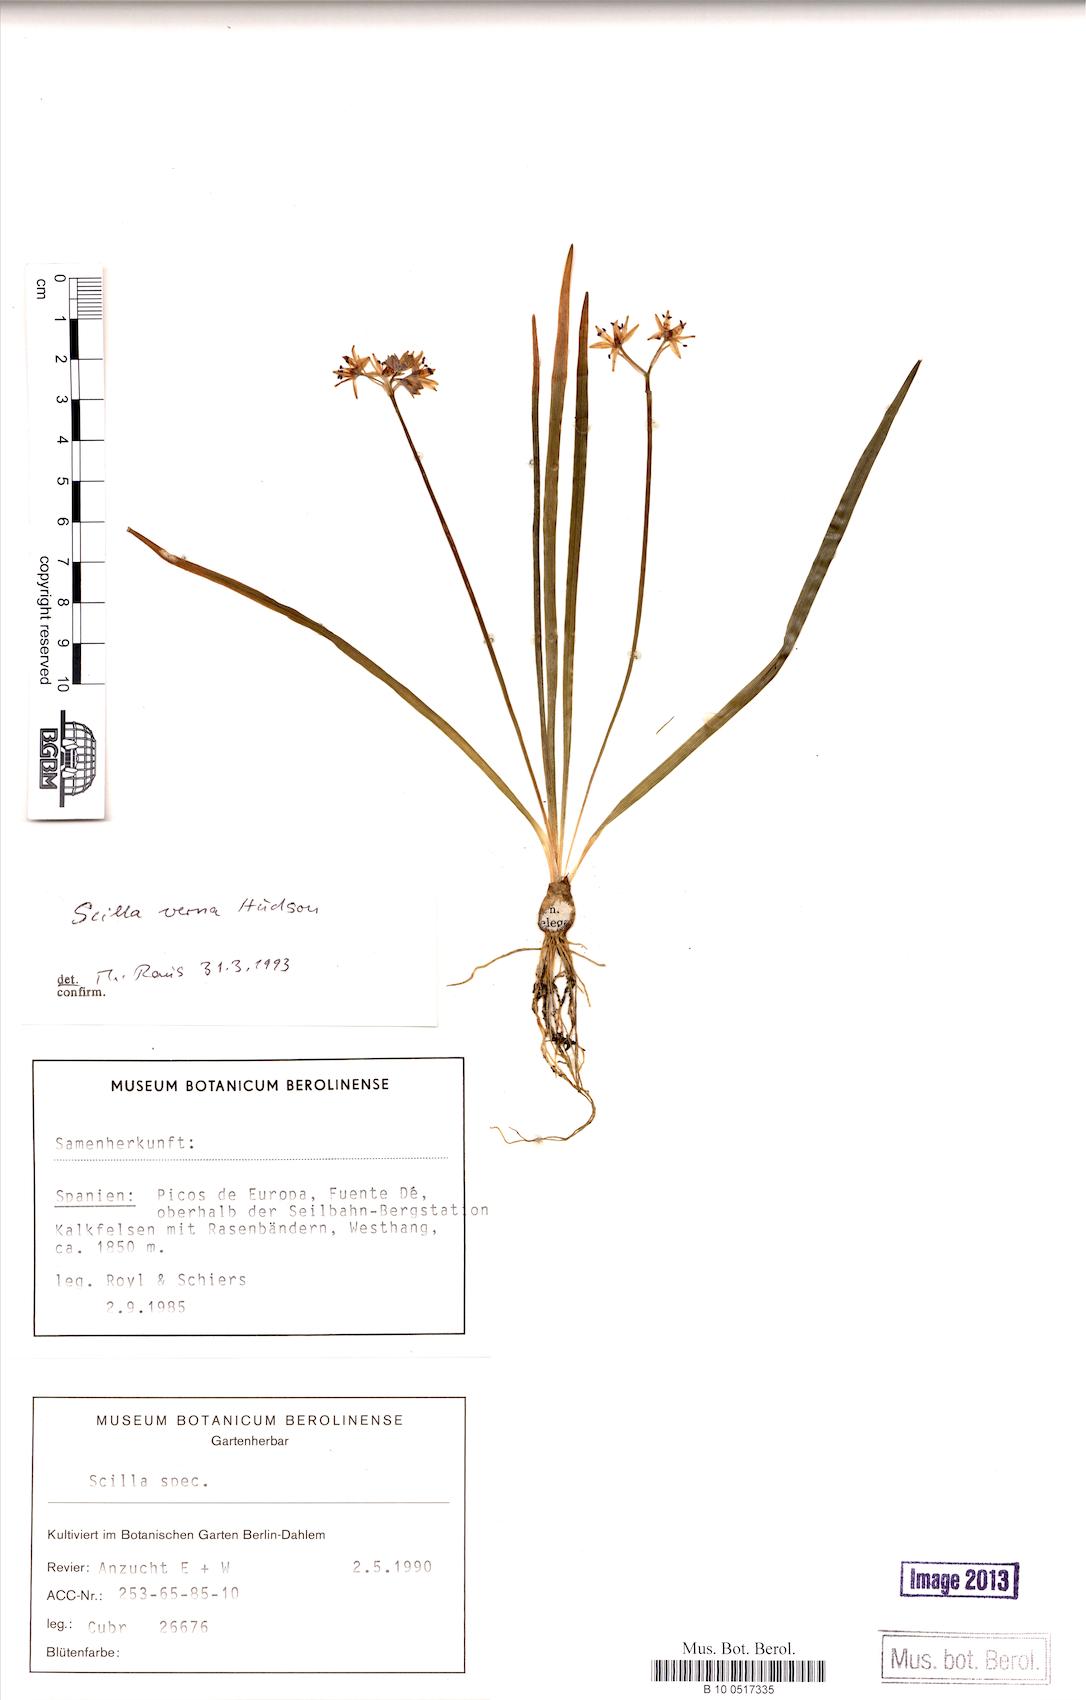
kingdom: Plantae
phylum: Tracheophyta
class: Liliopsida
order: Asparagales
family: Asparagaceae
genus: Scilla
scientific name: Scilla verna
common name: Spring squill
